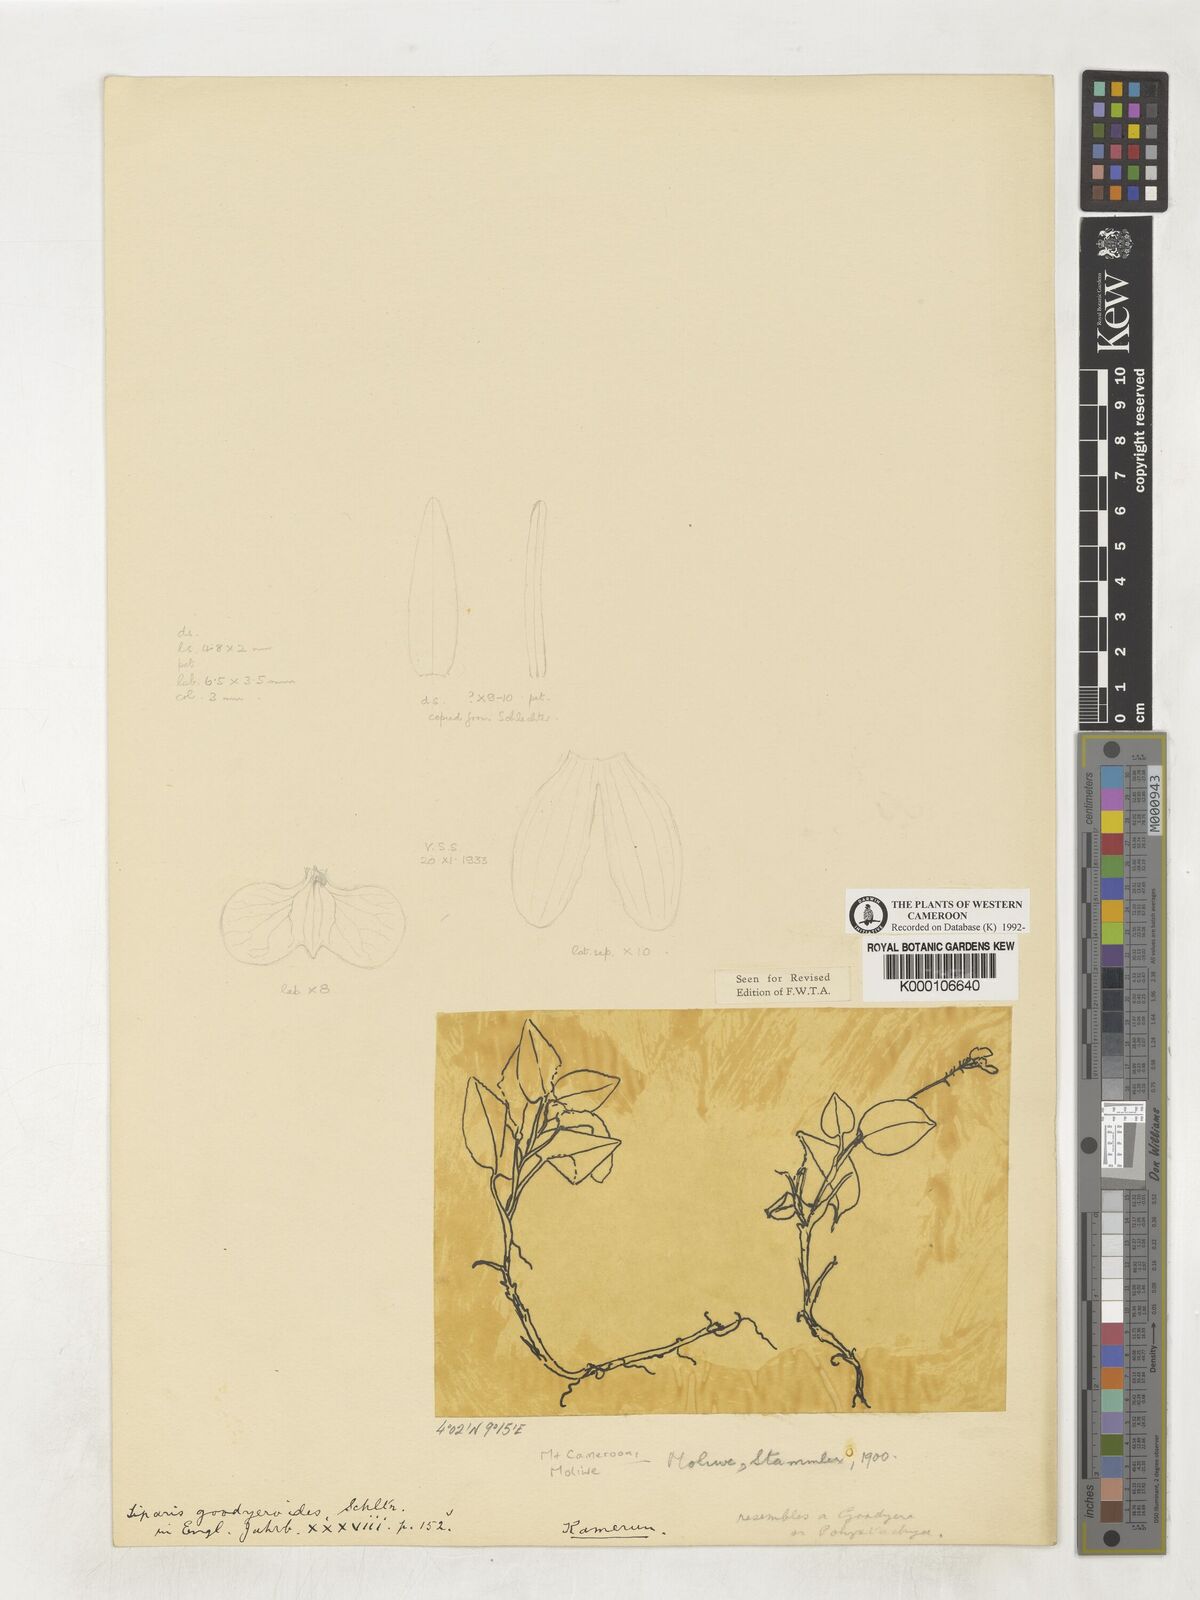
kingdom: Plantae
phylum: Tracheophyta
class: Liliopsida
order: Asparagales
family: Orchidaceae
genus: Liparis
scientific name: Liparis goodyeroides
